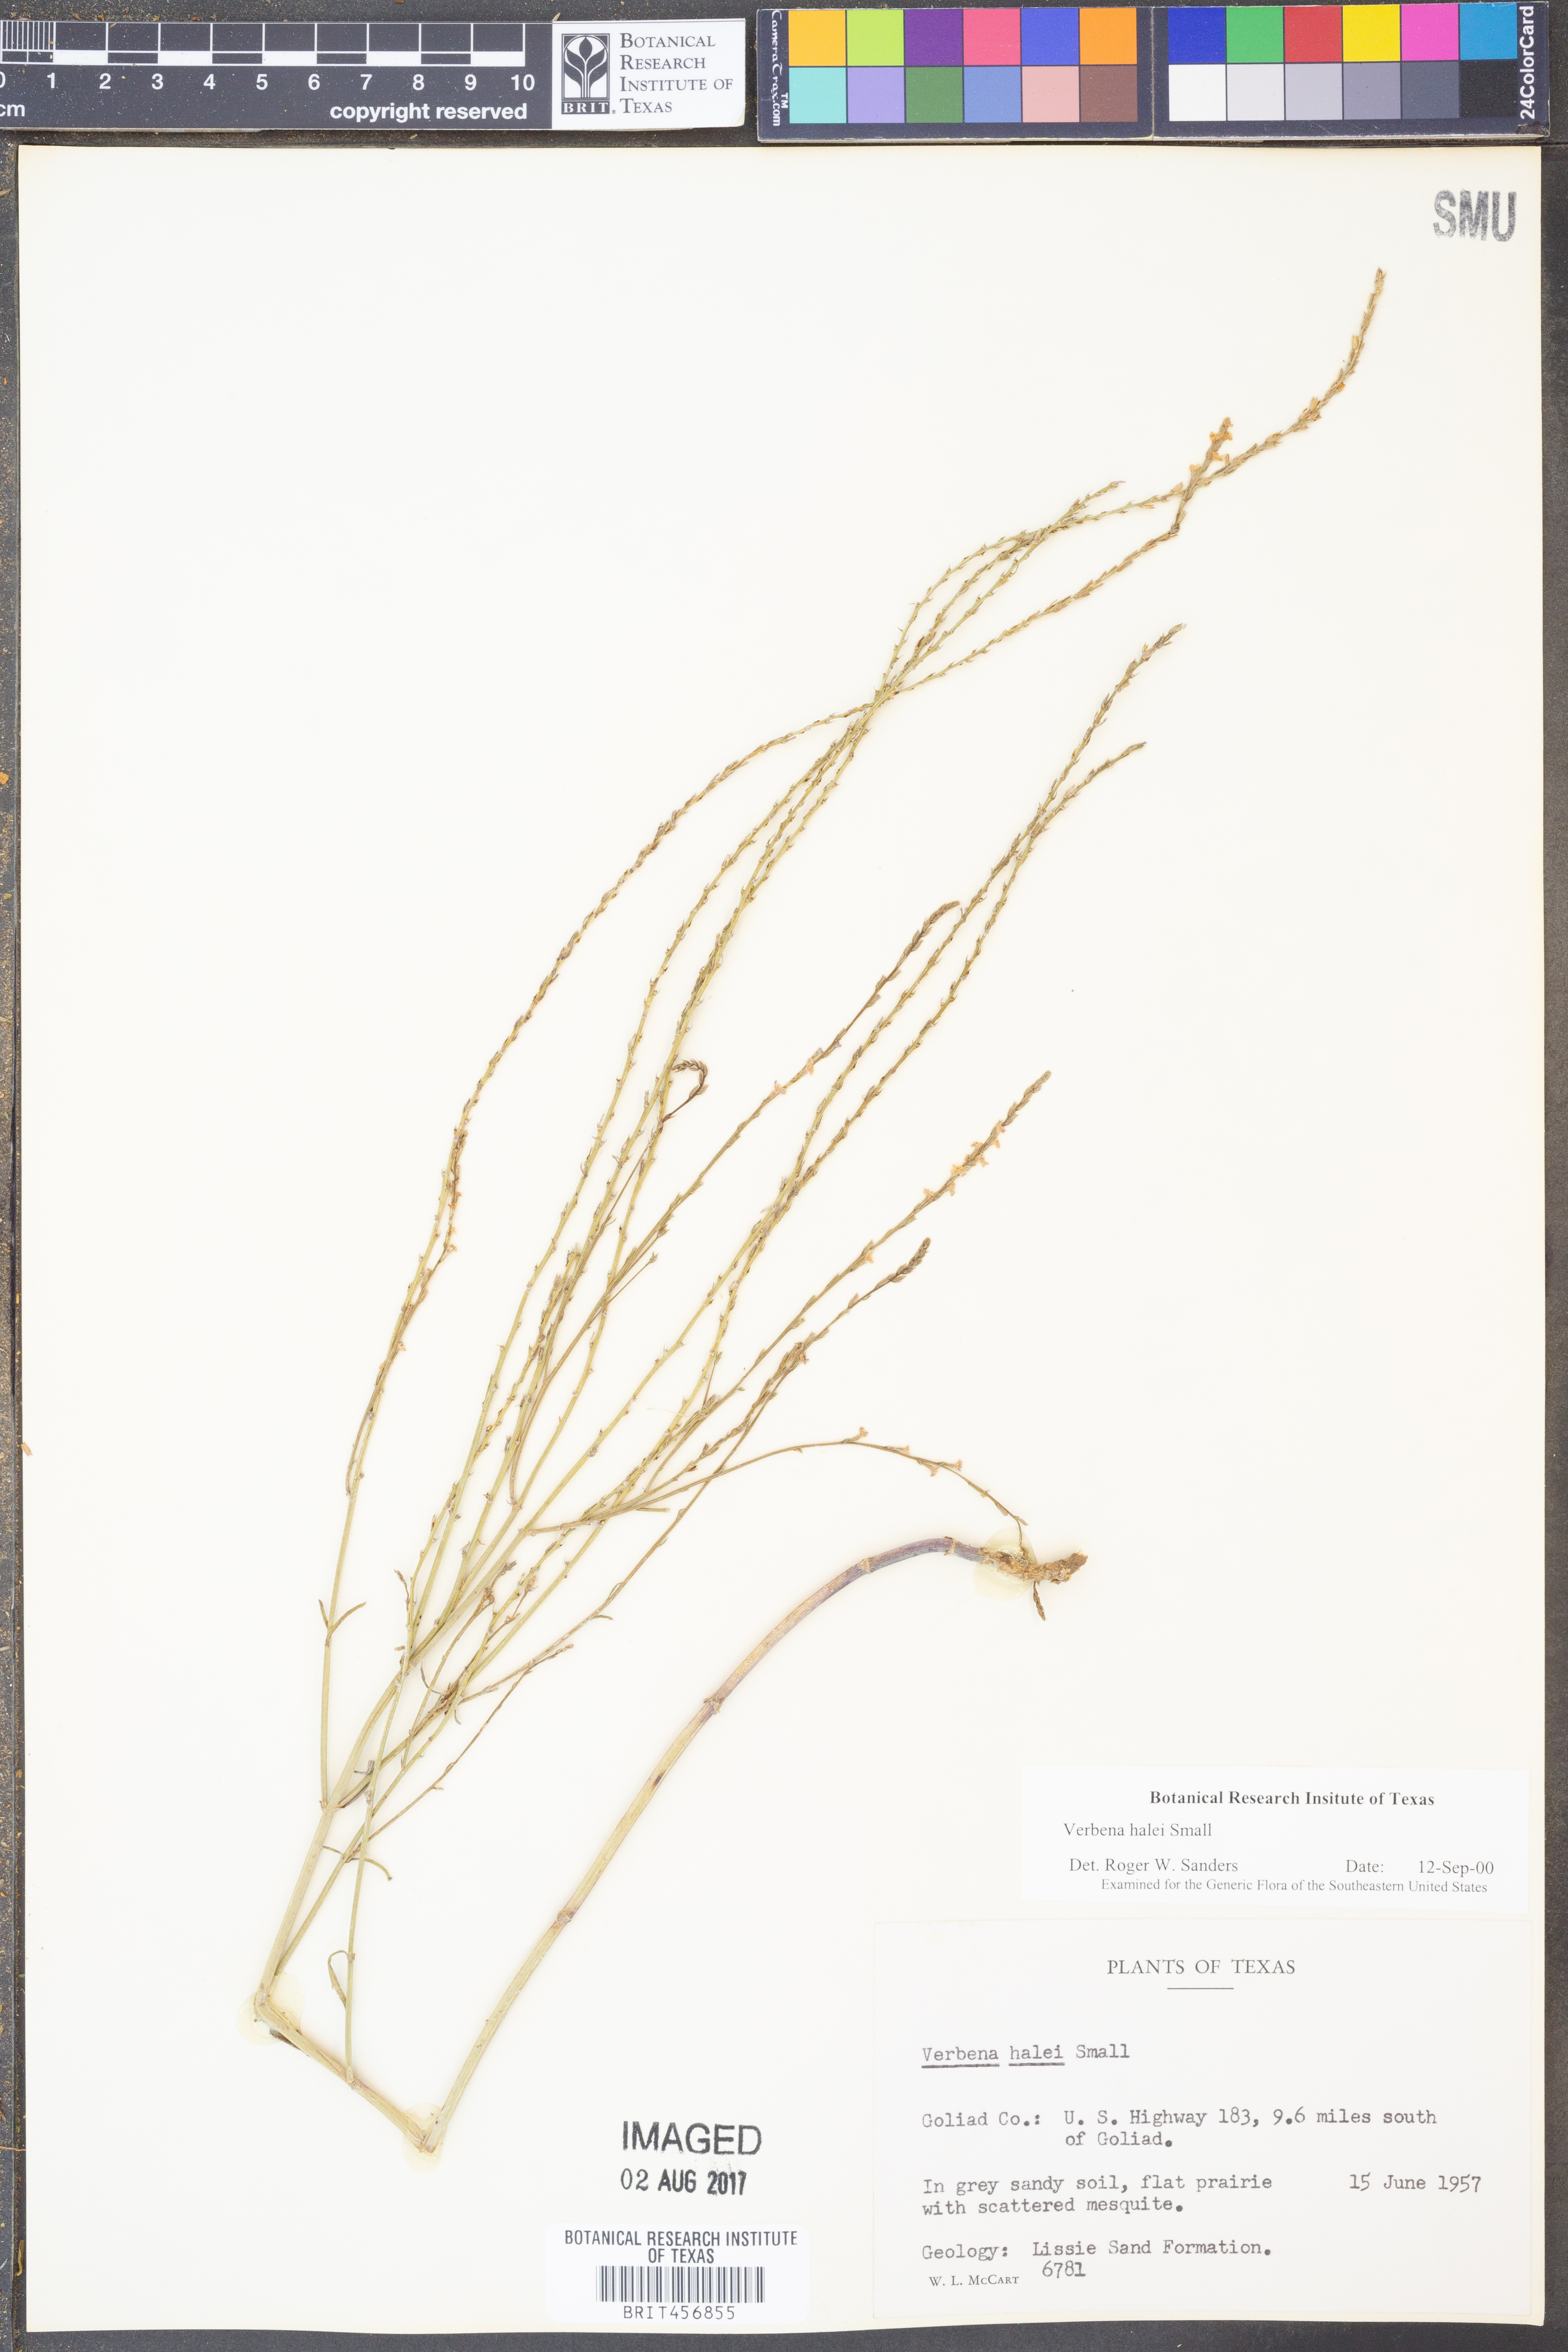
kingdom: Plantae
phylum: Tracheophyta
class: Magnoliopsida
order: Lamiales
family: Verbenaceae
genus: Verbena
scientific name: Verbena halei
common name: Texas vervain
